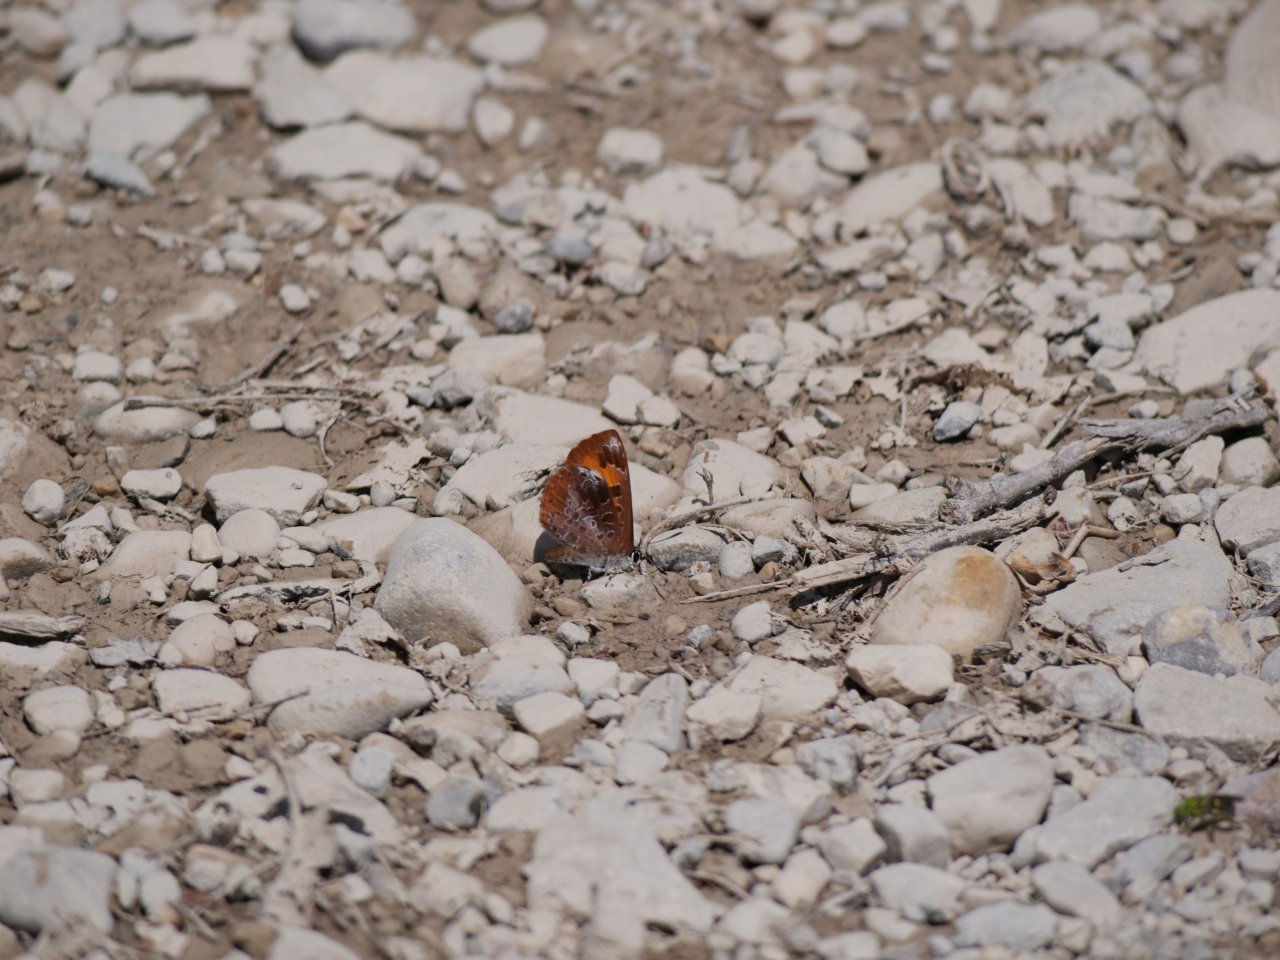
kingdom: Animalia
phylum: Arthropoda
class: Insecta
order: Lepidoptera
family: Lycaenidae
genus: Feniseca
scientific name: Feniseca tarquinius
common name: Harvester
